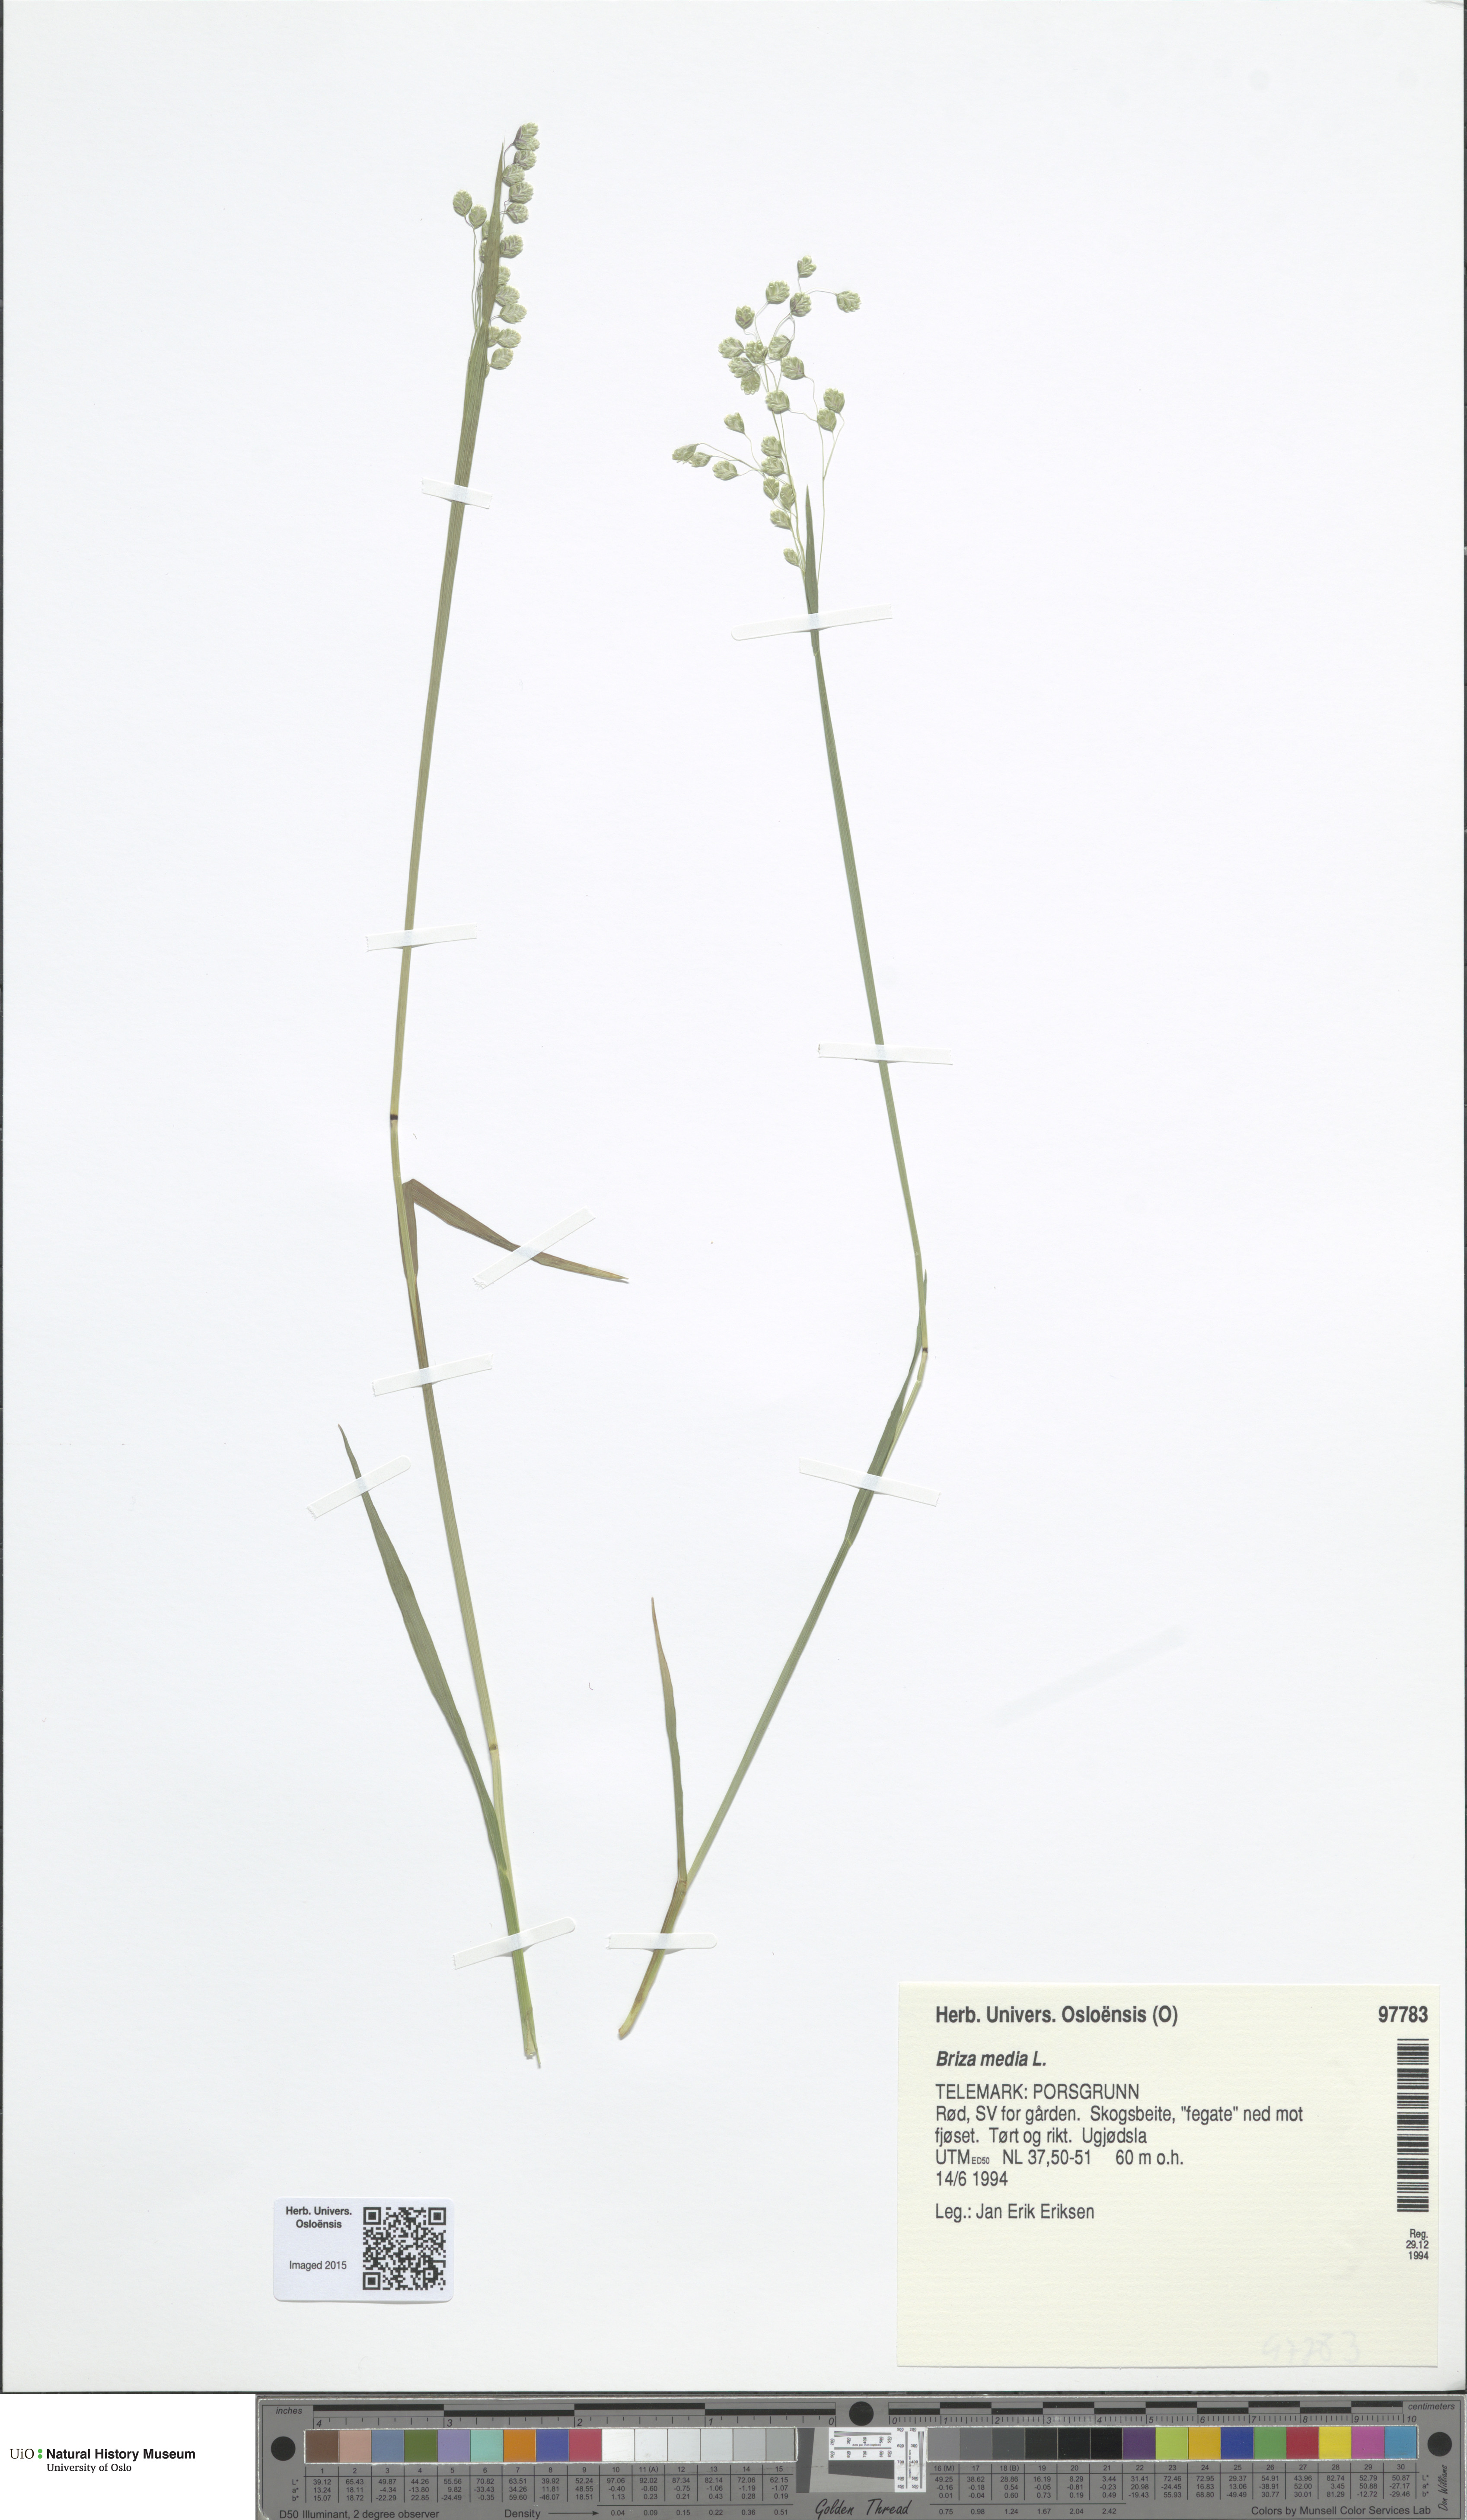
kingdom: Plantae
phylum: Tracheophyta
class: Liliopsida
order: Poales
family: Poaceae
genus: Briza
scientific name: Briza media
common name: Quaking grass
